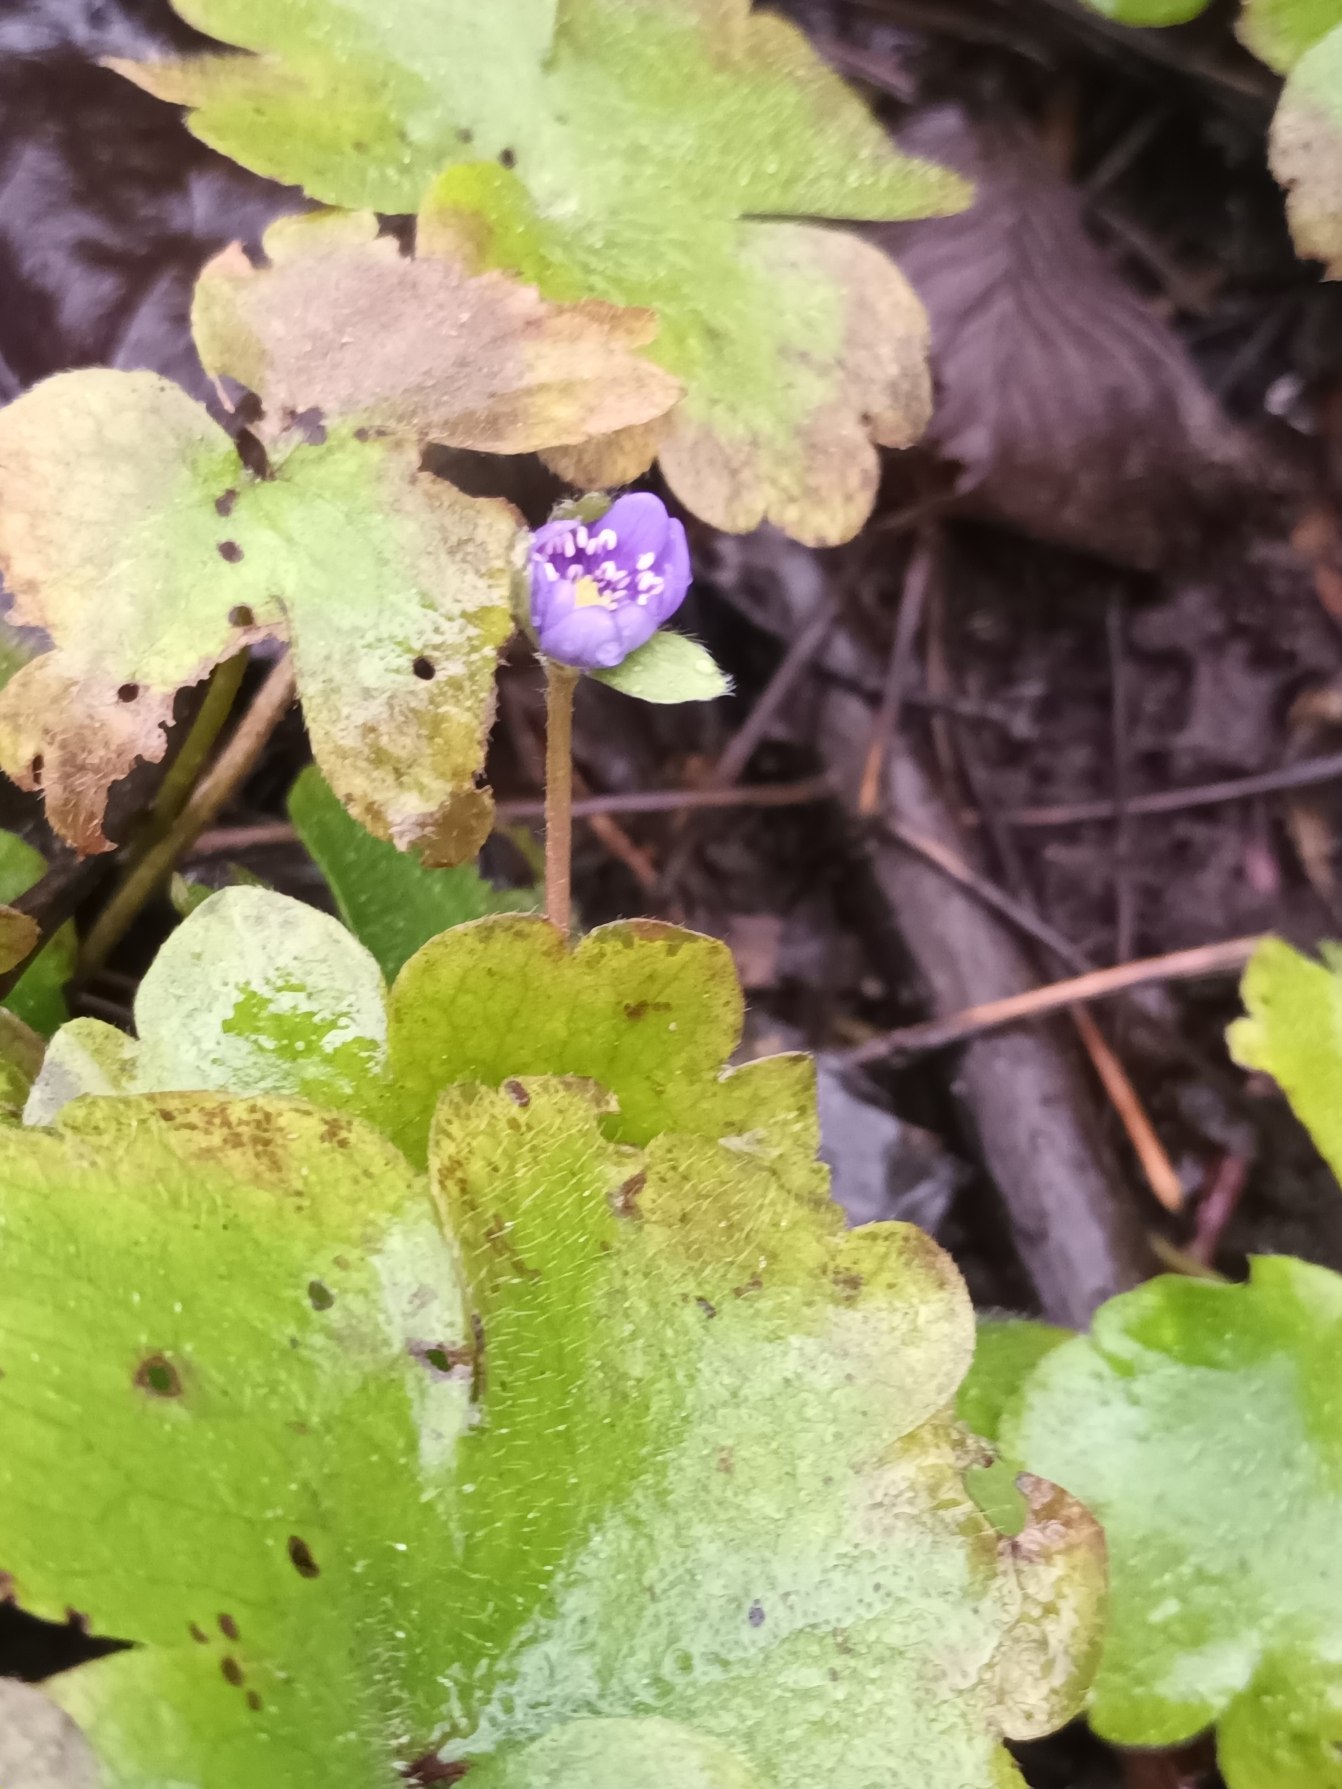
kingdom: Plantae
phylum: Tracheophyta
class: Magnoliopsida
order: Ranunculales
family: Ranunculaceae
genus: Hepatica
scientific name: Hepatica transsilvanica
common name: Ungarsk anemone
